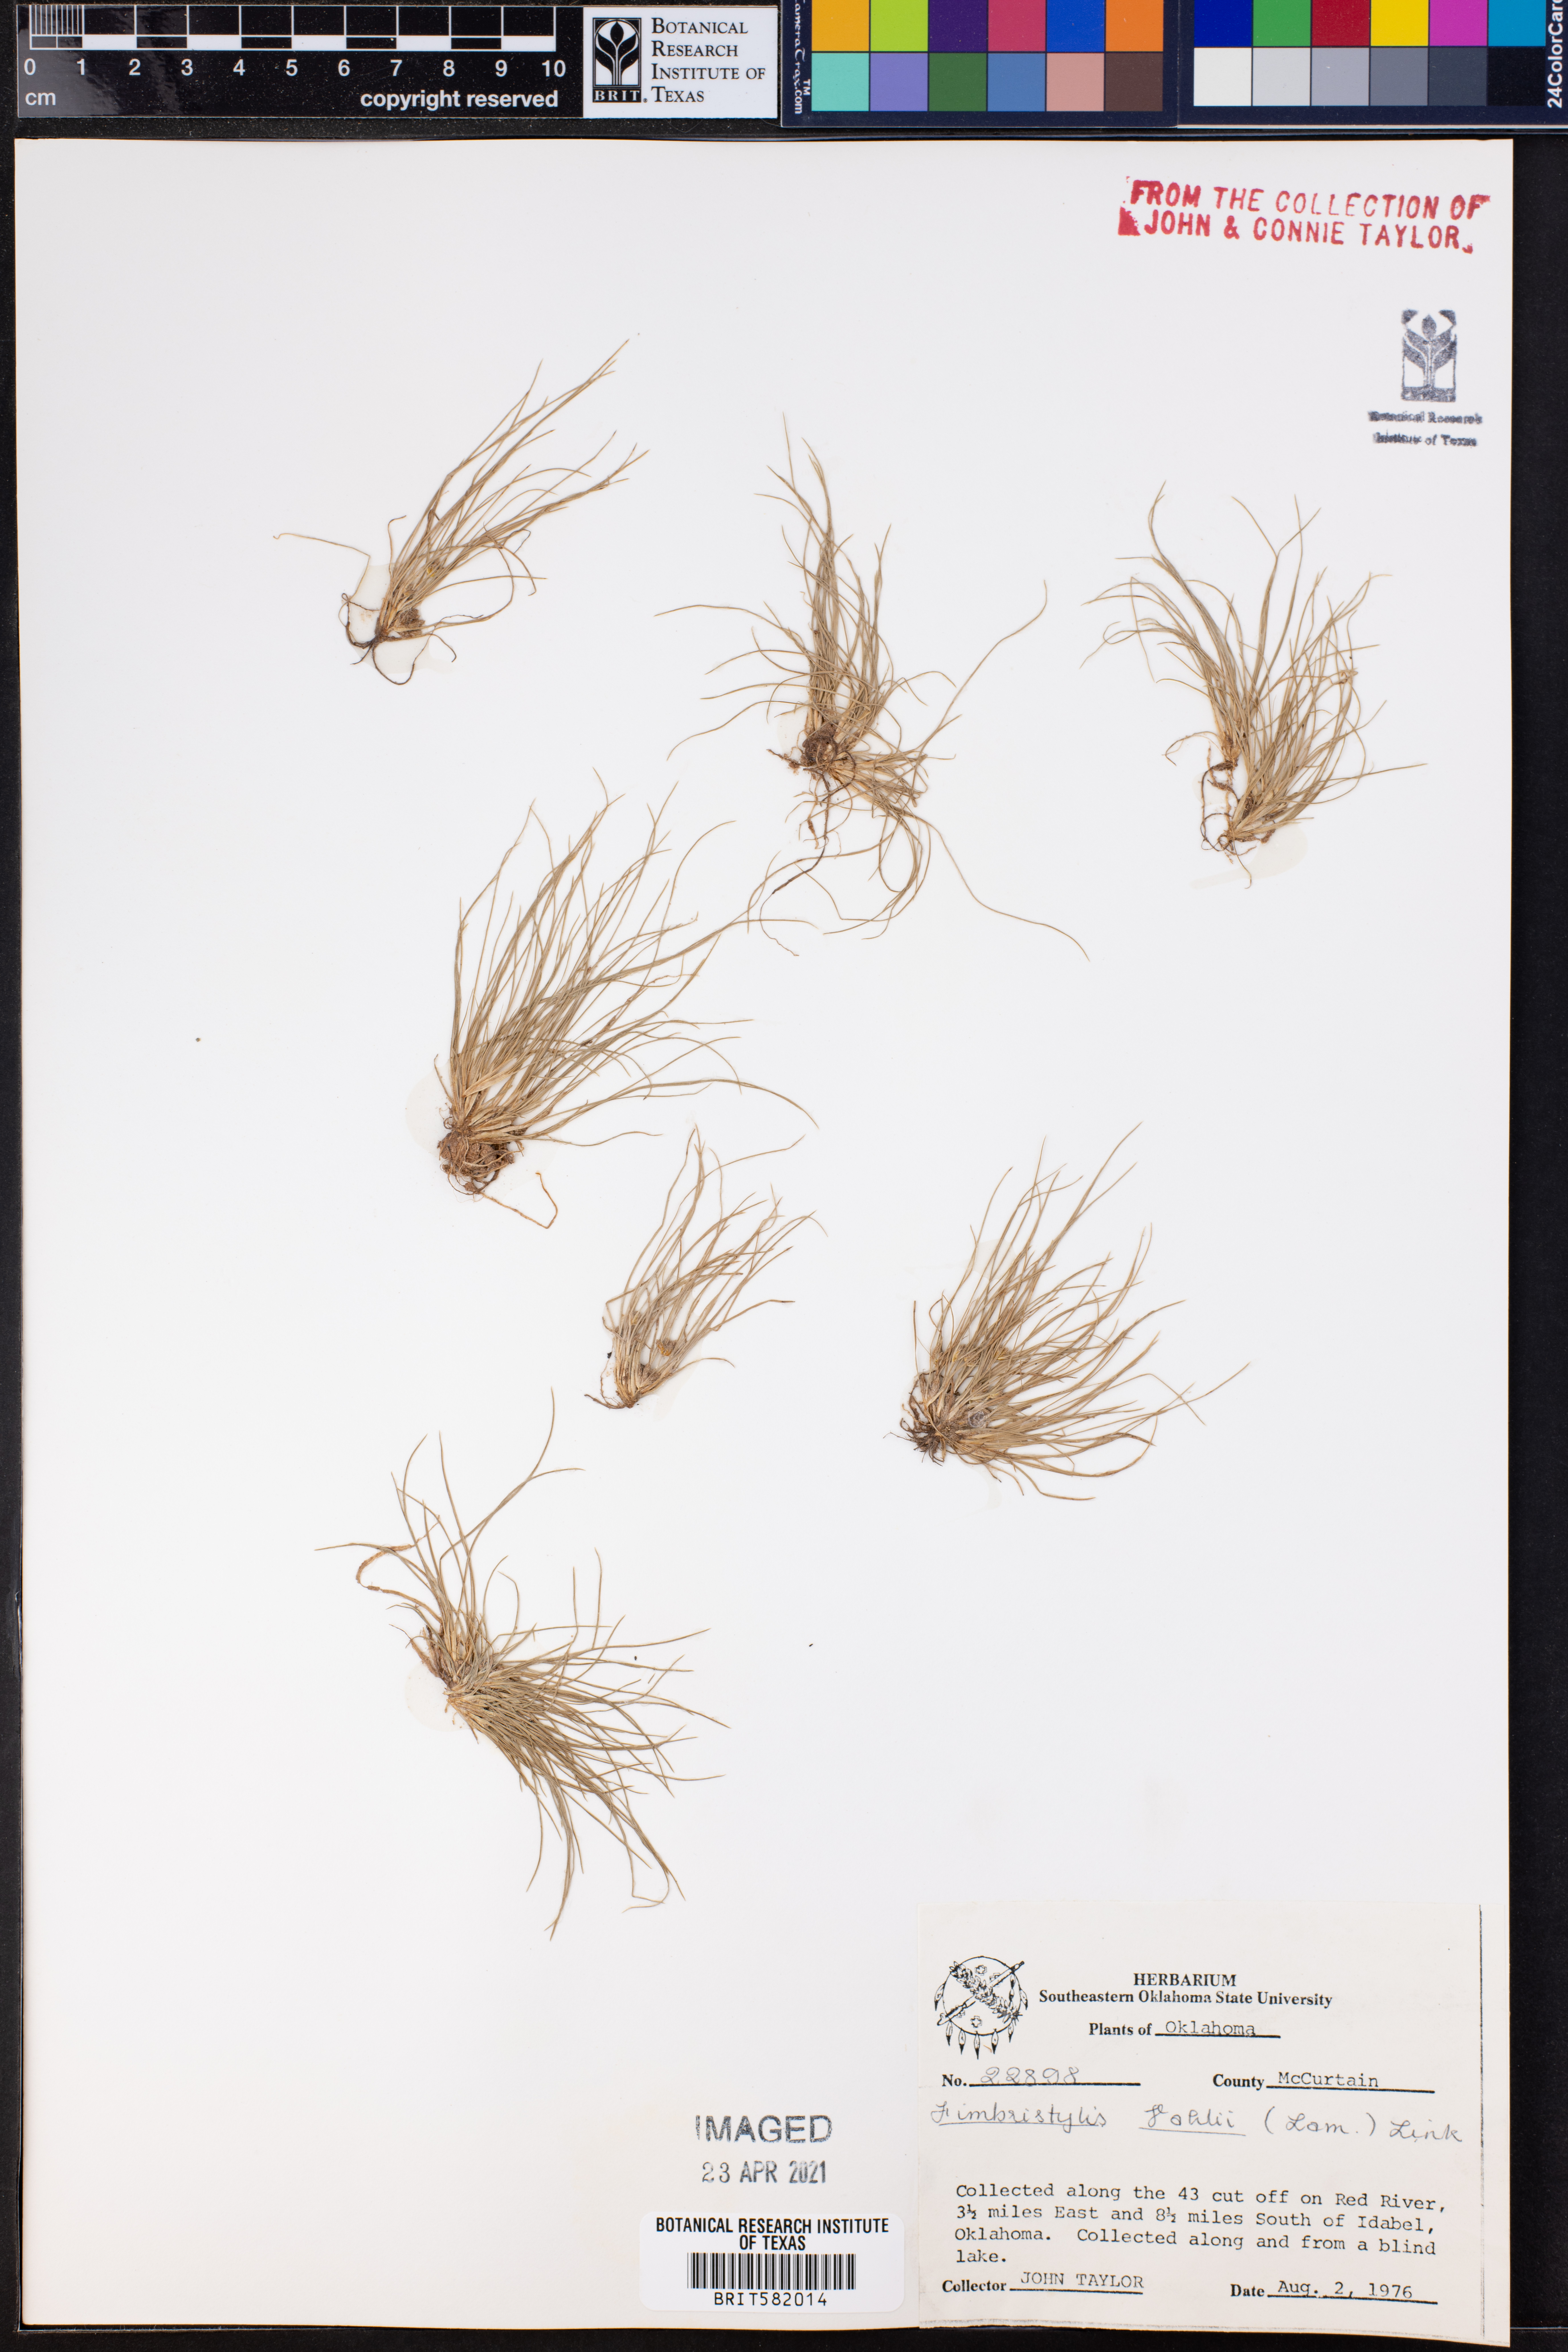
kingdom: Plantae
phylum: Tracheophyta
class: Liliopsida
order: Poales
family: Cyperaceae
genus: Fimbristylis
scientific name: Fimbristylis vahlii
